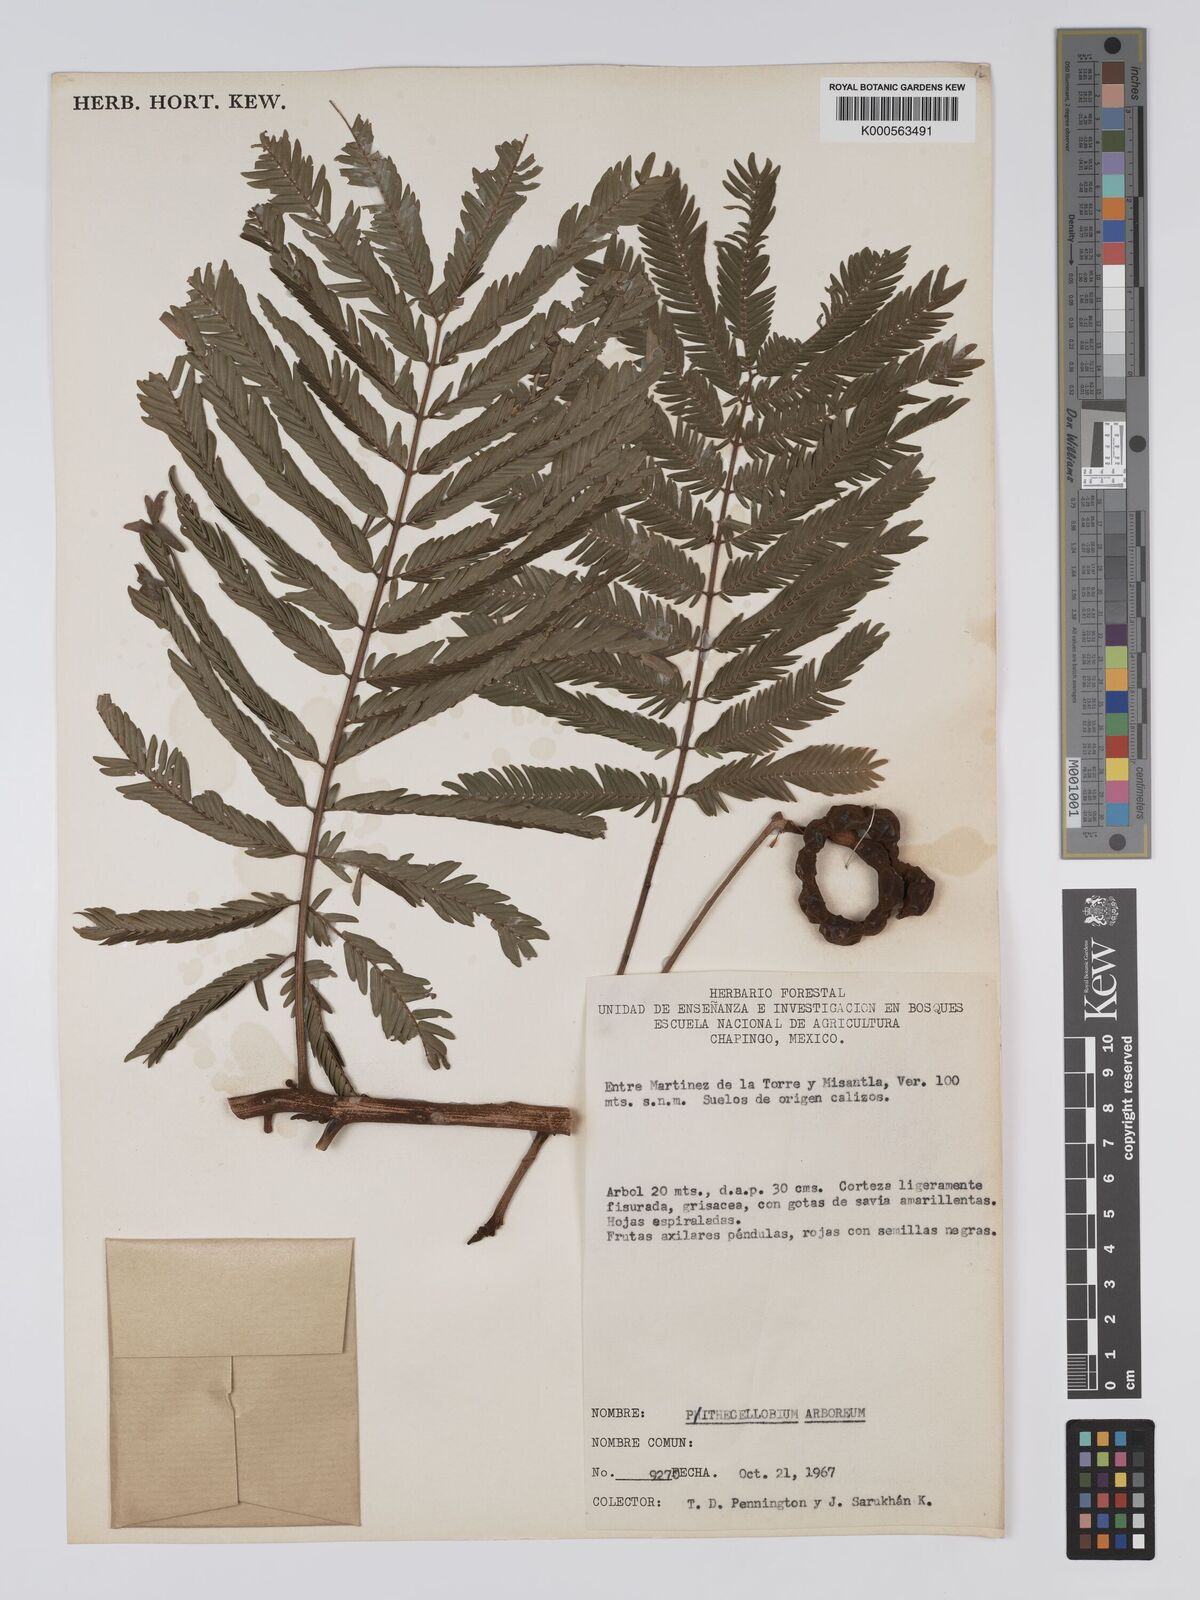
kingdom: Plantae
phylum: Tracheophyta
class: Magnoliopsida
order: Fabales
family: Fabaceae
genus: Cojoba
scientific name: Cojoba arborea
